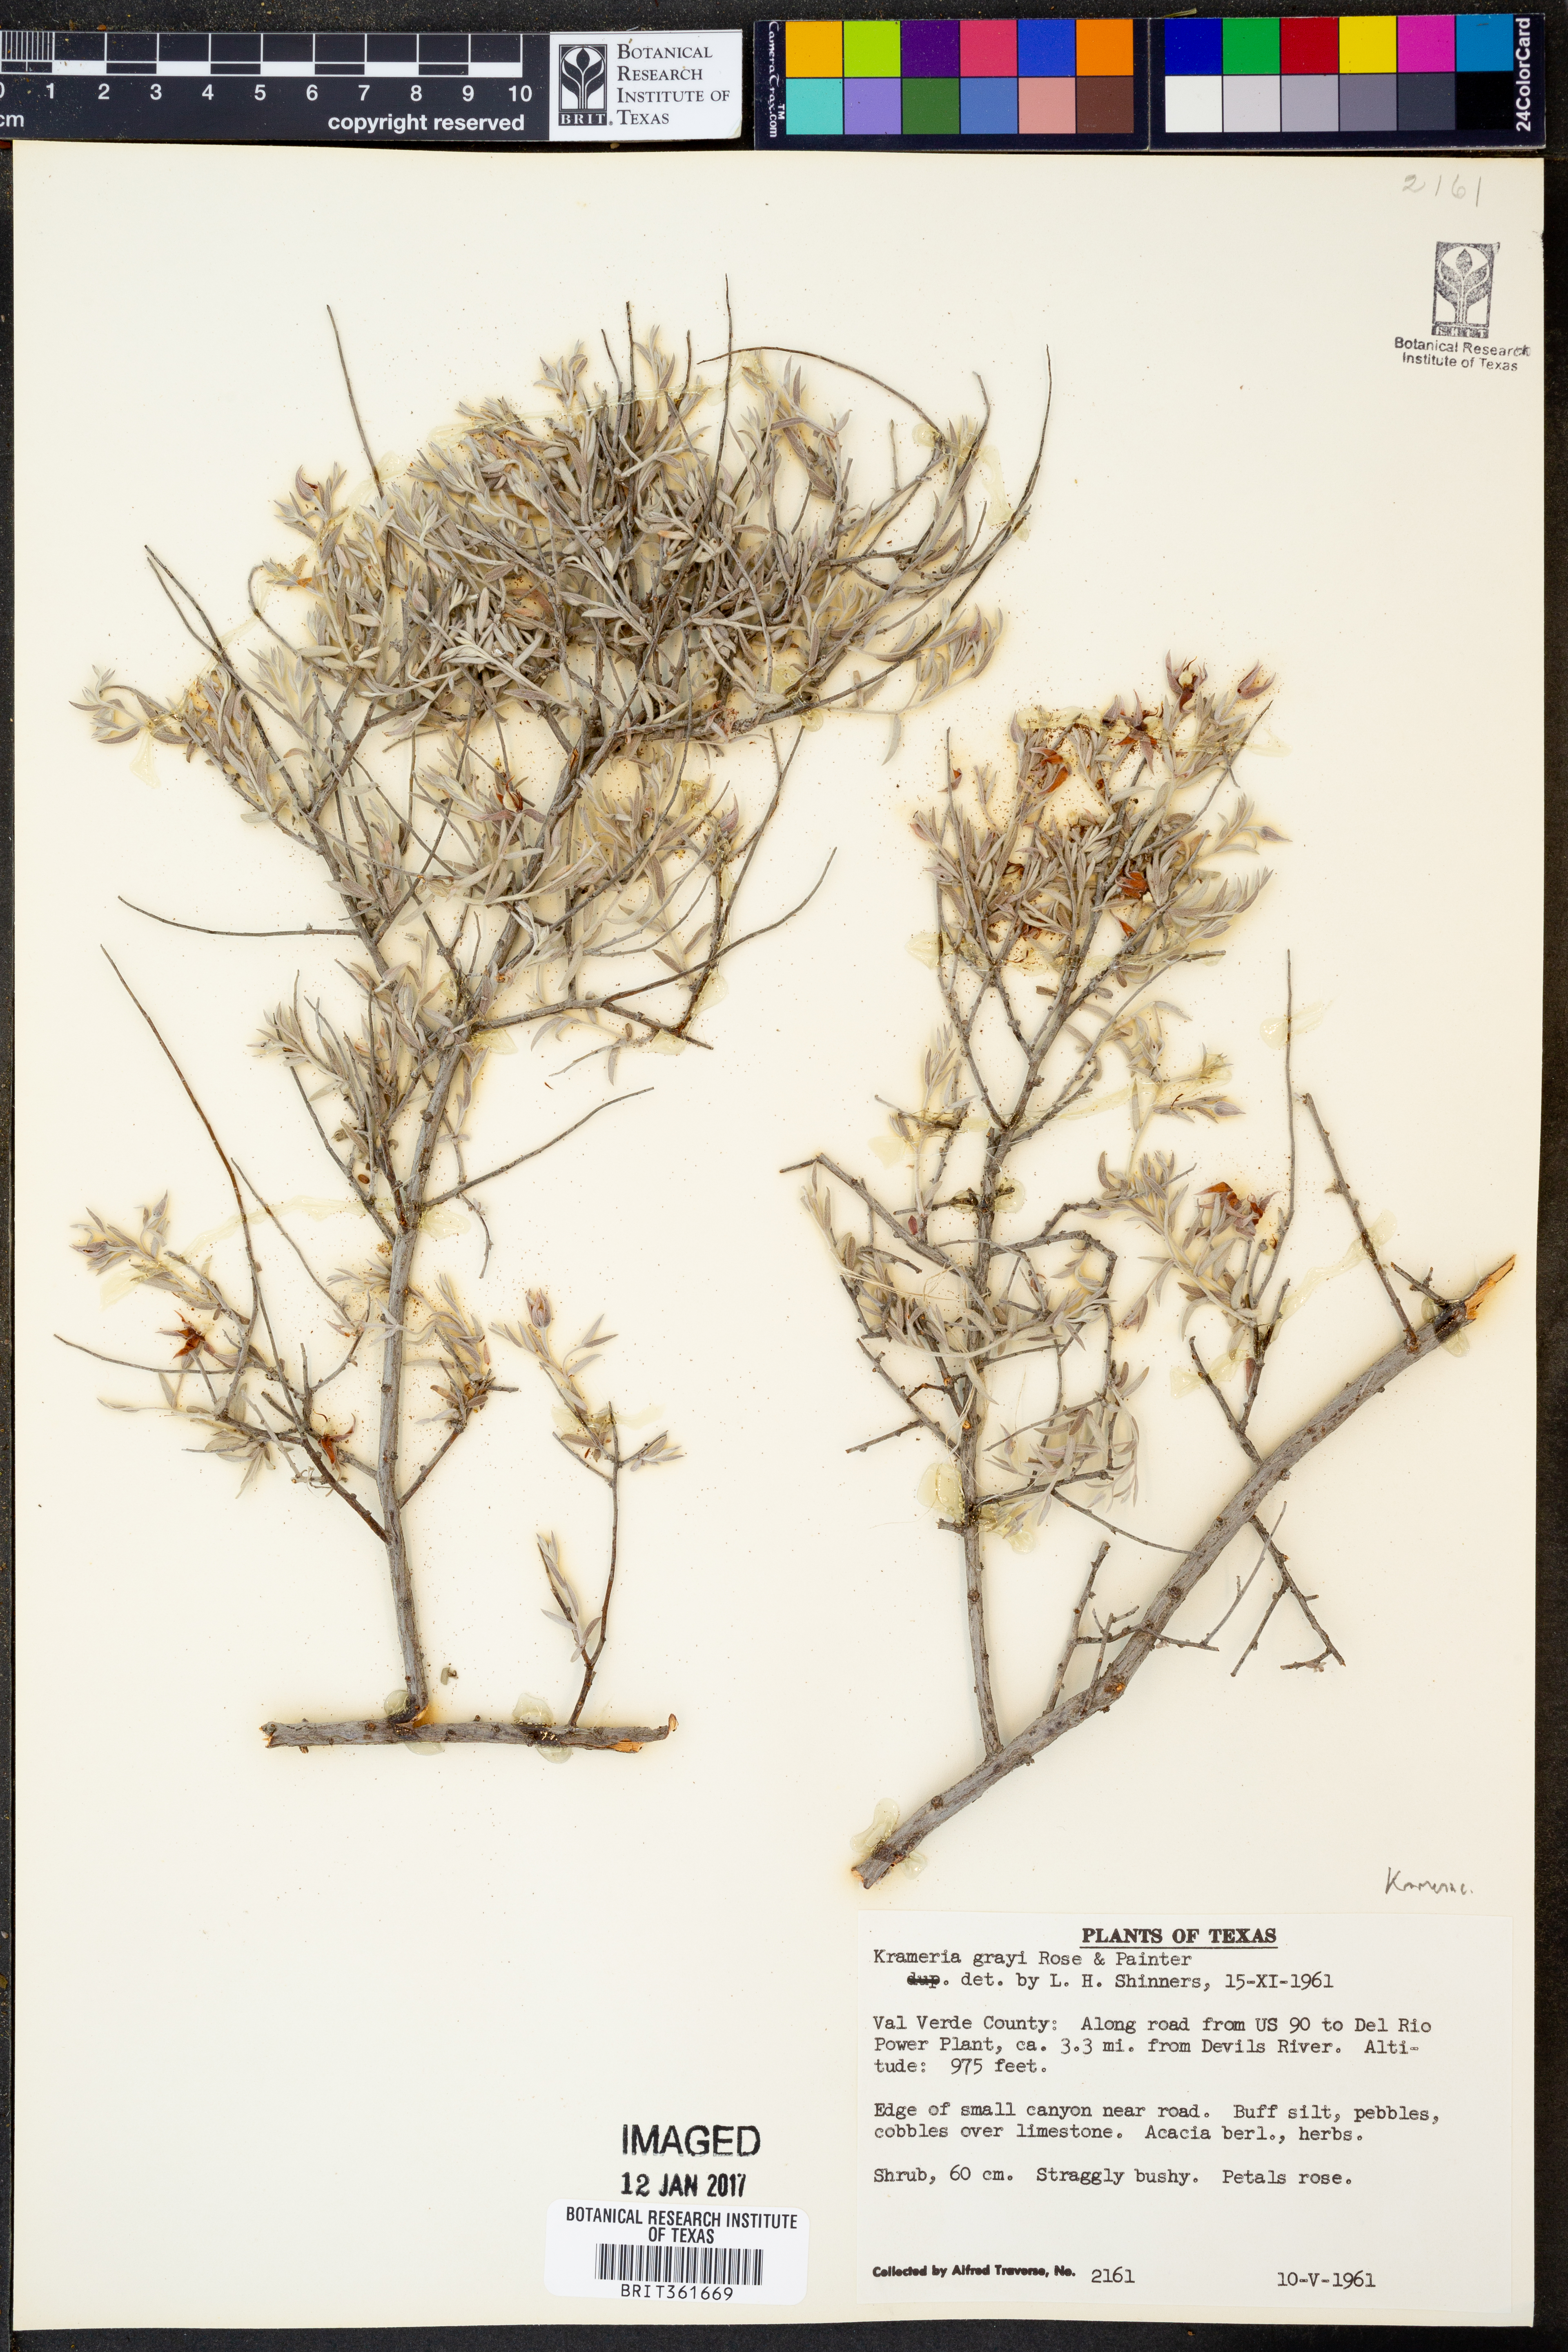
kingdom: Plantae
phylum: Tracheophyta
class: Magnoliopsida
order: Zygophyllales
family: Krameriaceae
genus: Krameria
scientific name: Krameria bicolor
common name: White ratany
